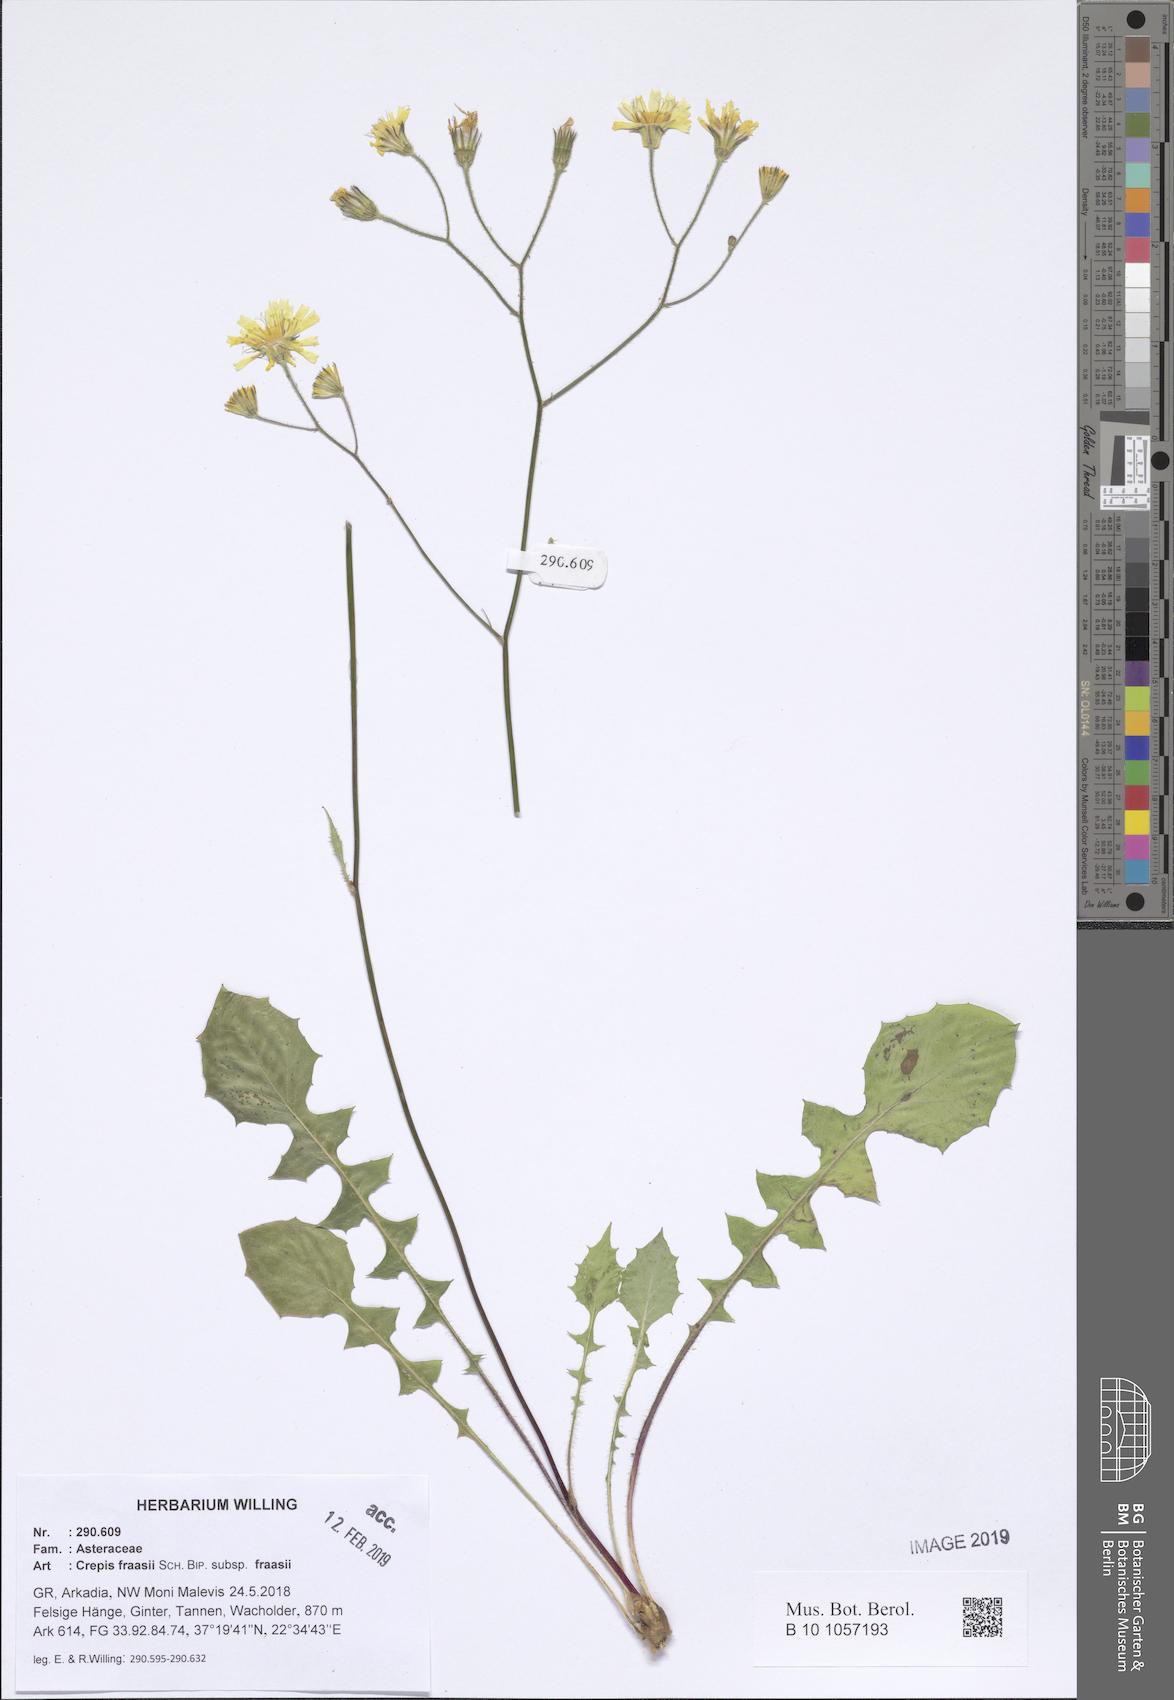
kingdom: Plantae
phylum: Tracheophyta
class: Magnoliopsida
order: Asterales
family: Asteraceae
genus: Crepis
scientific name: Crepis fraasii
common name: Hawk's-beard
